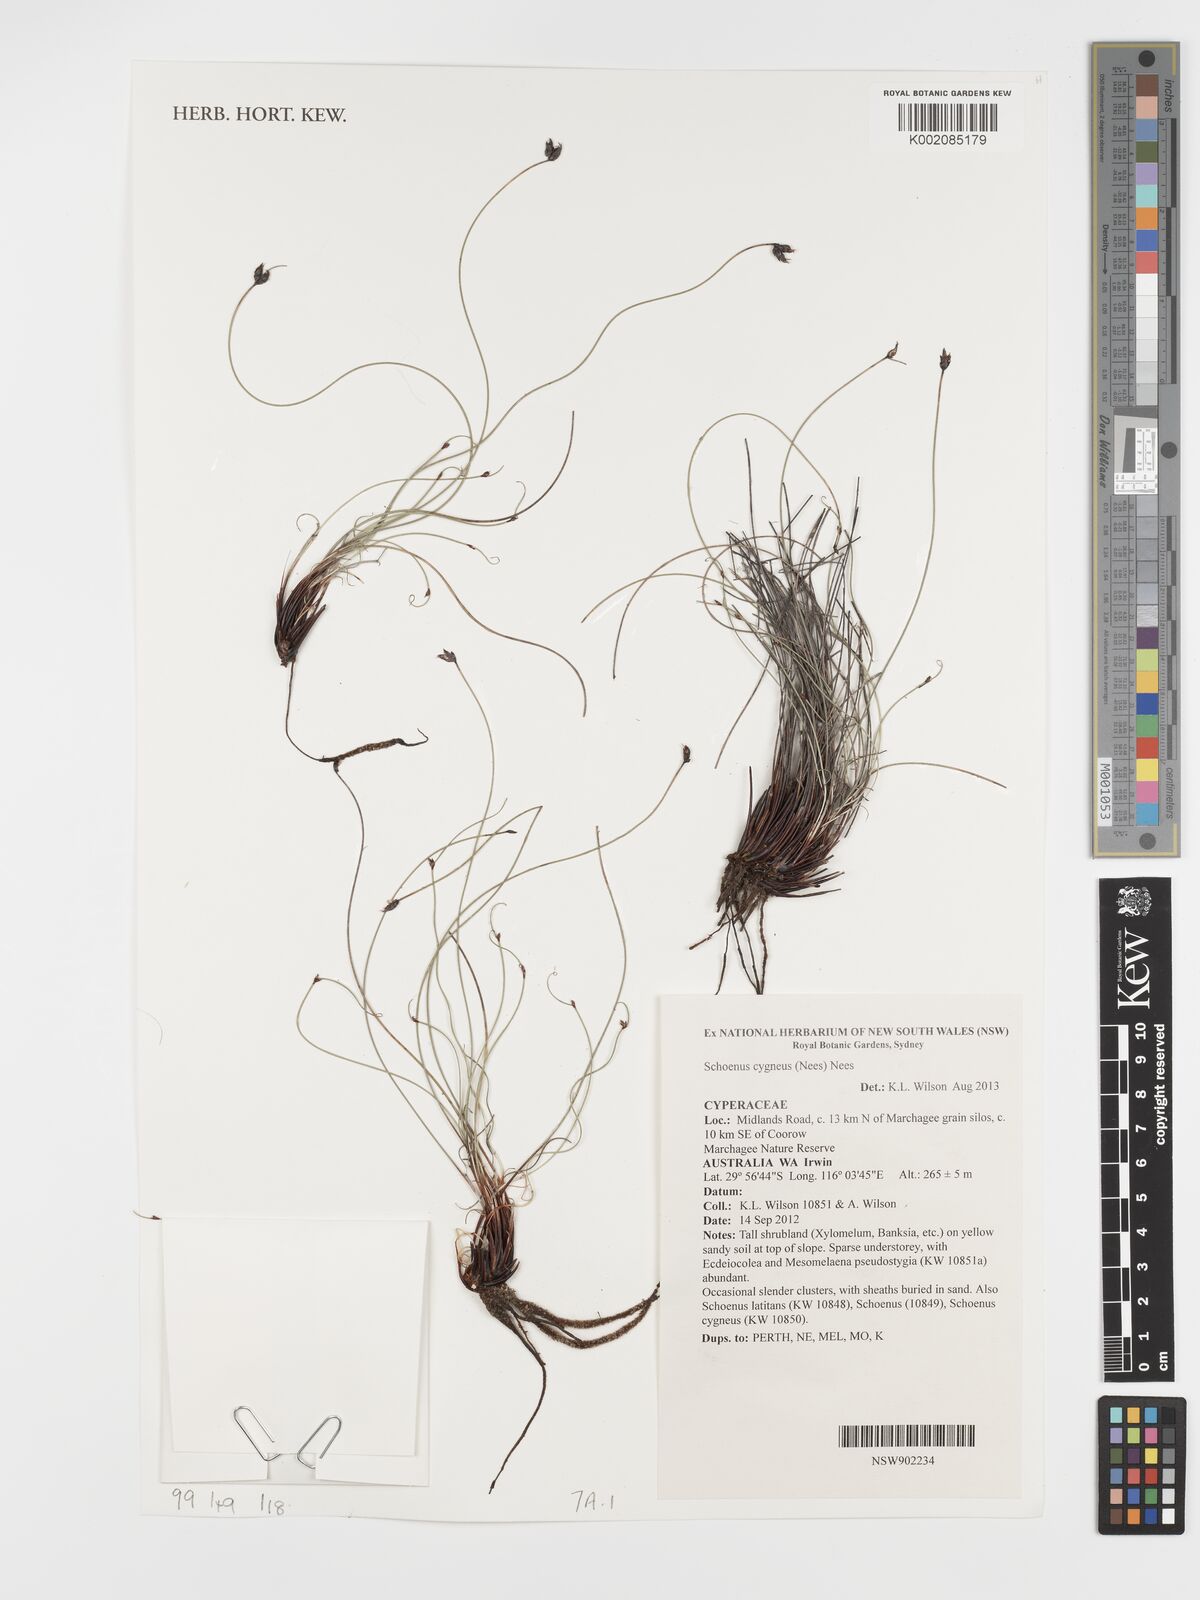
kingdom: Plantae
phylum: Tracheophyta
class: Liliopsida
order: Poales
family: Cyperaceae
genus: Schoenus
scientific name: Schoenus cygneus
